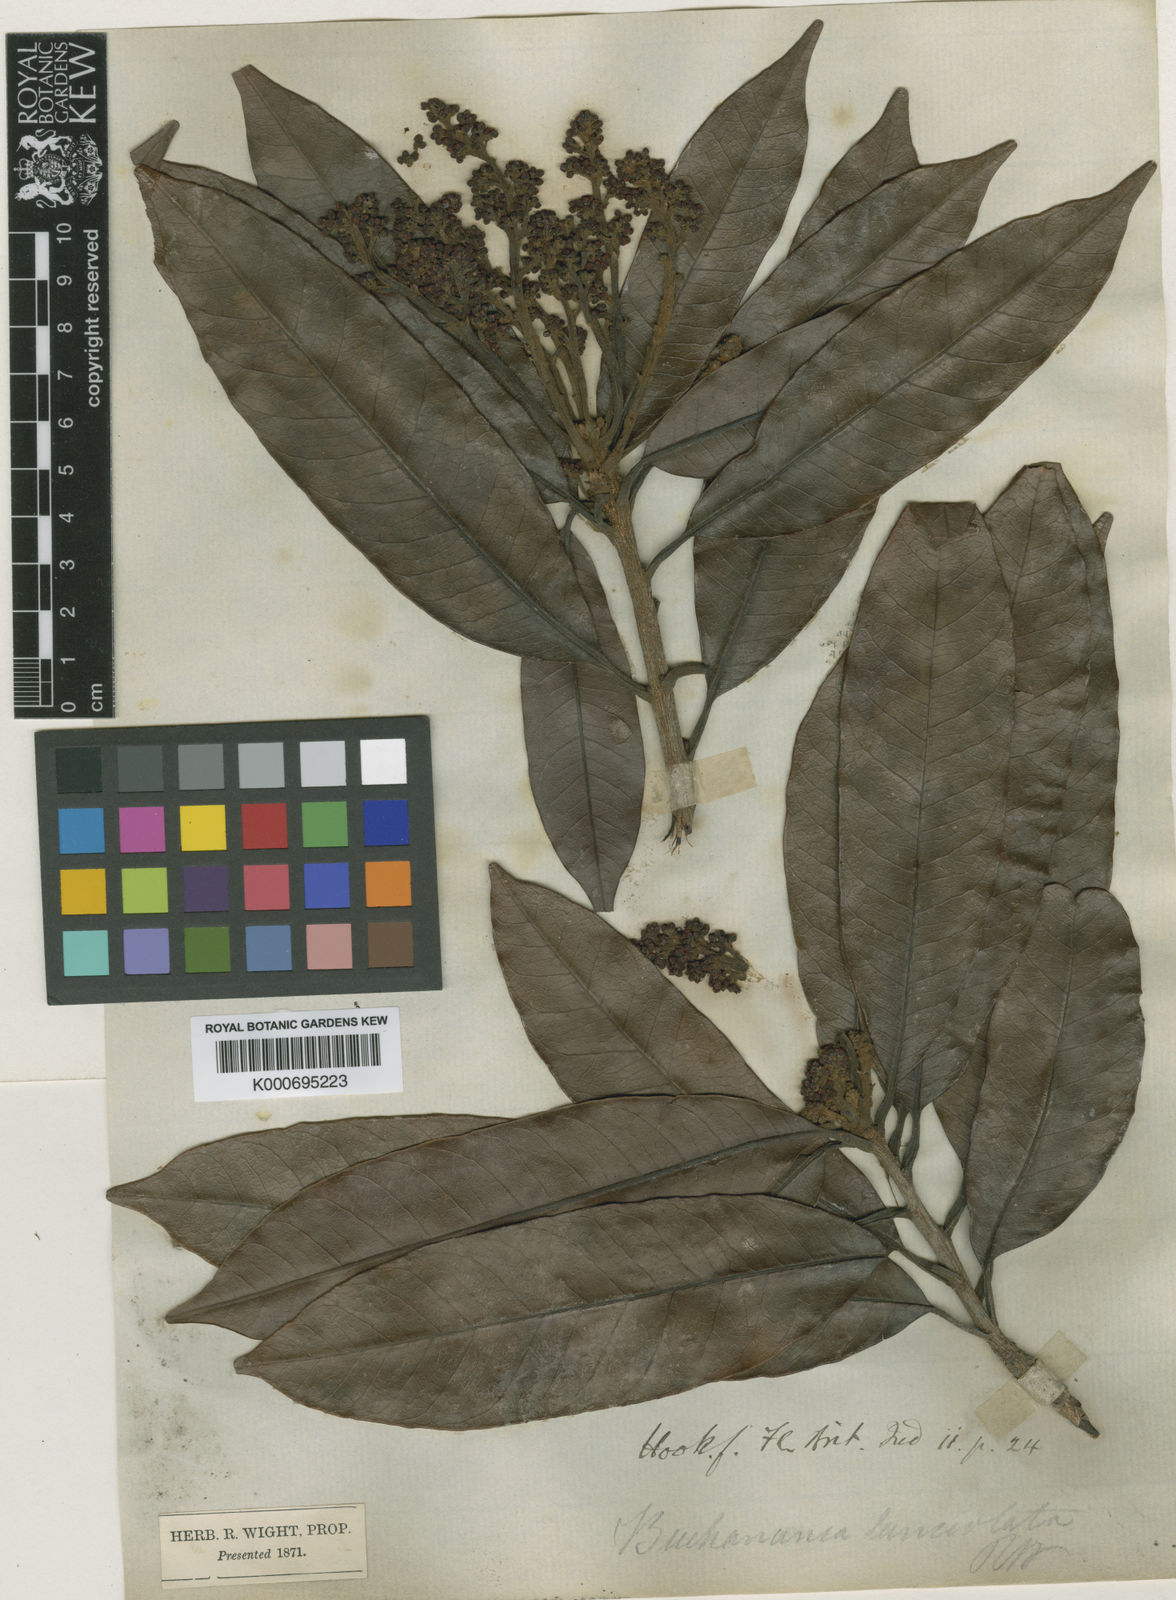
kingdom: Plantae
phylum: Tracheophyta
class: Magnoliopsida
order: Sapindales
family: Anacardiaceae
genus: Buchanania
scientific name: Buchanania lanceolata
